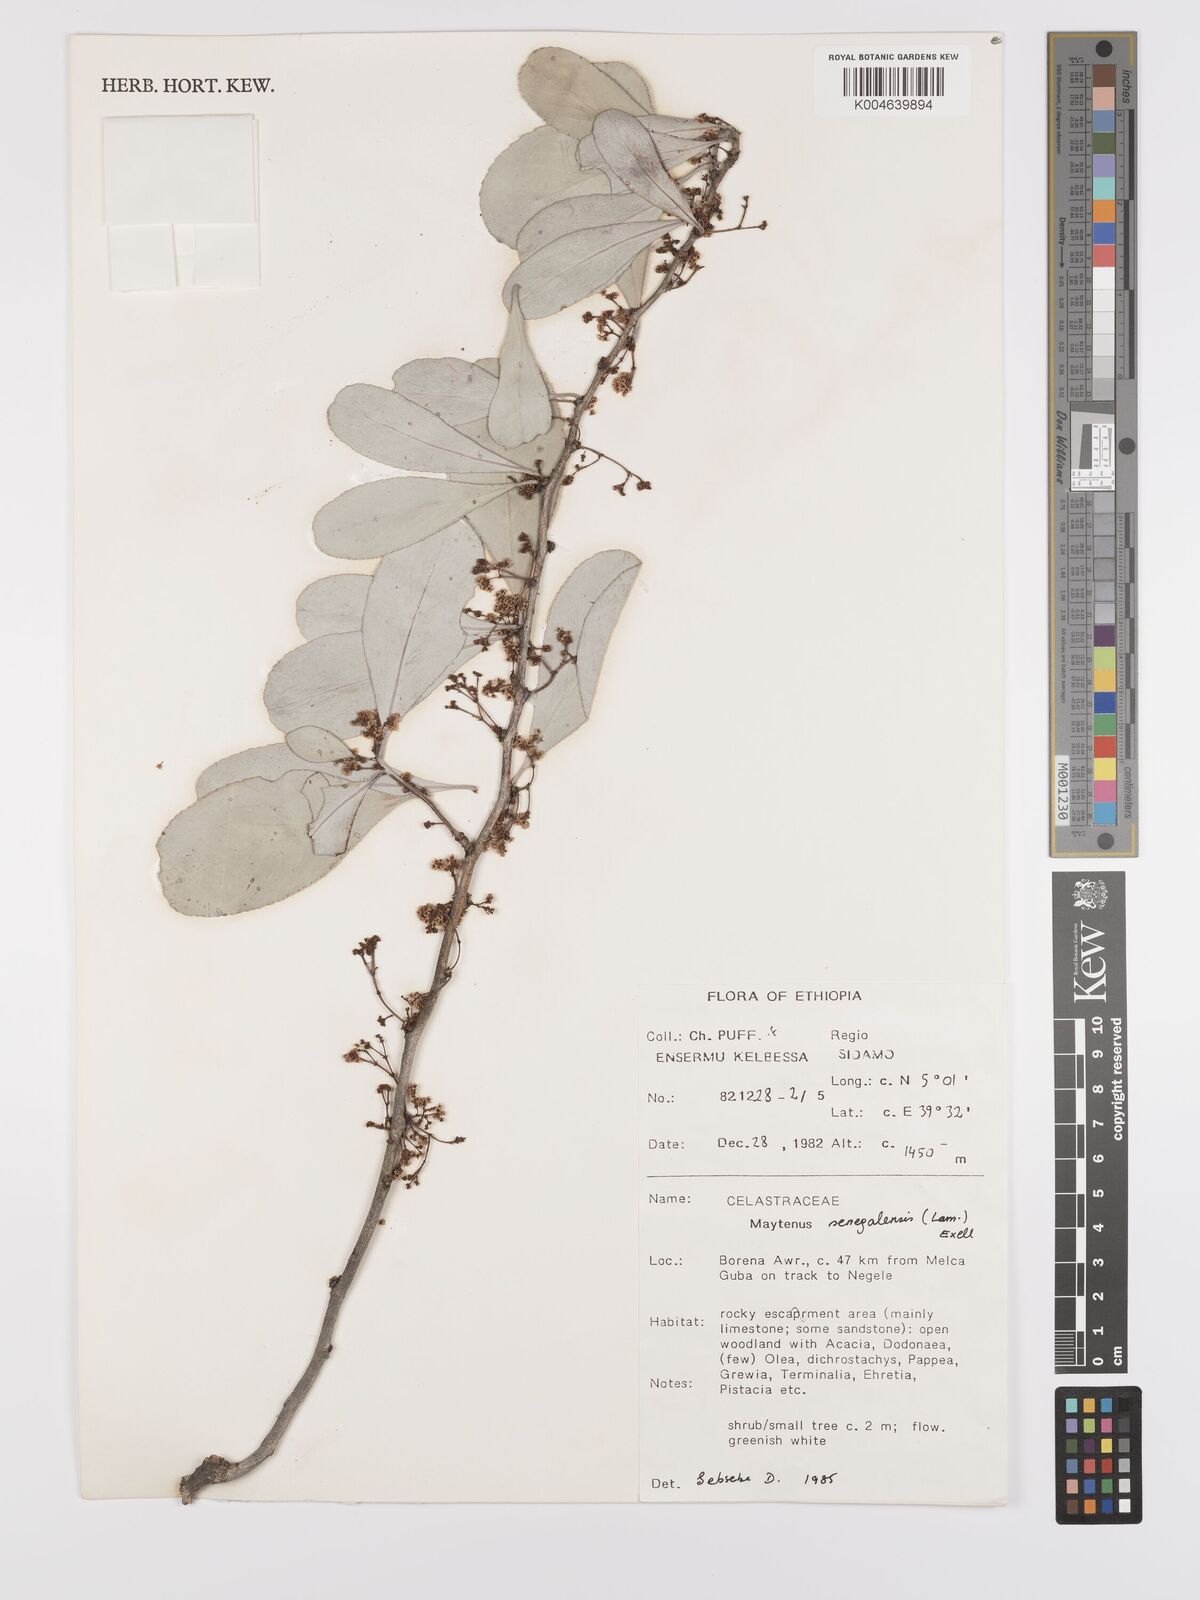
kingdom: Plantae
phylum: Tracheophyta
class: Magnoliopsida
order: Celastrales
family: Celastraceae
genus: Gymnosporia
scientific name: Gymnosporia senegalensis
